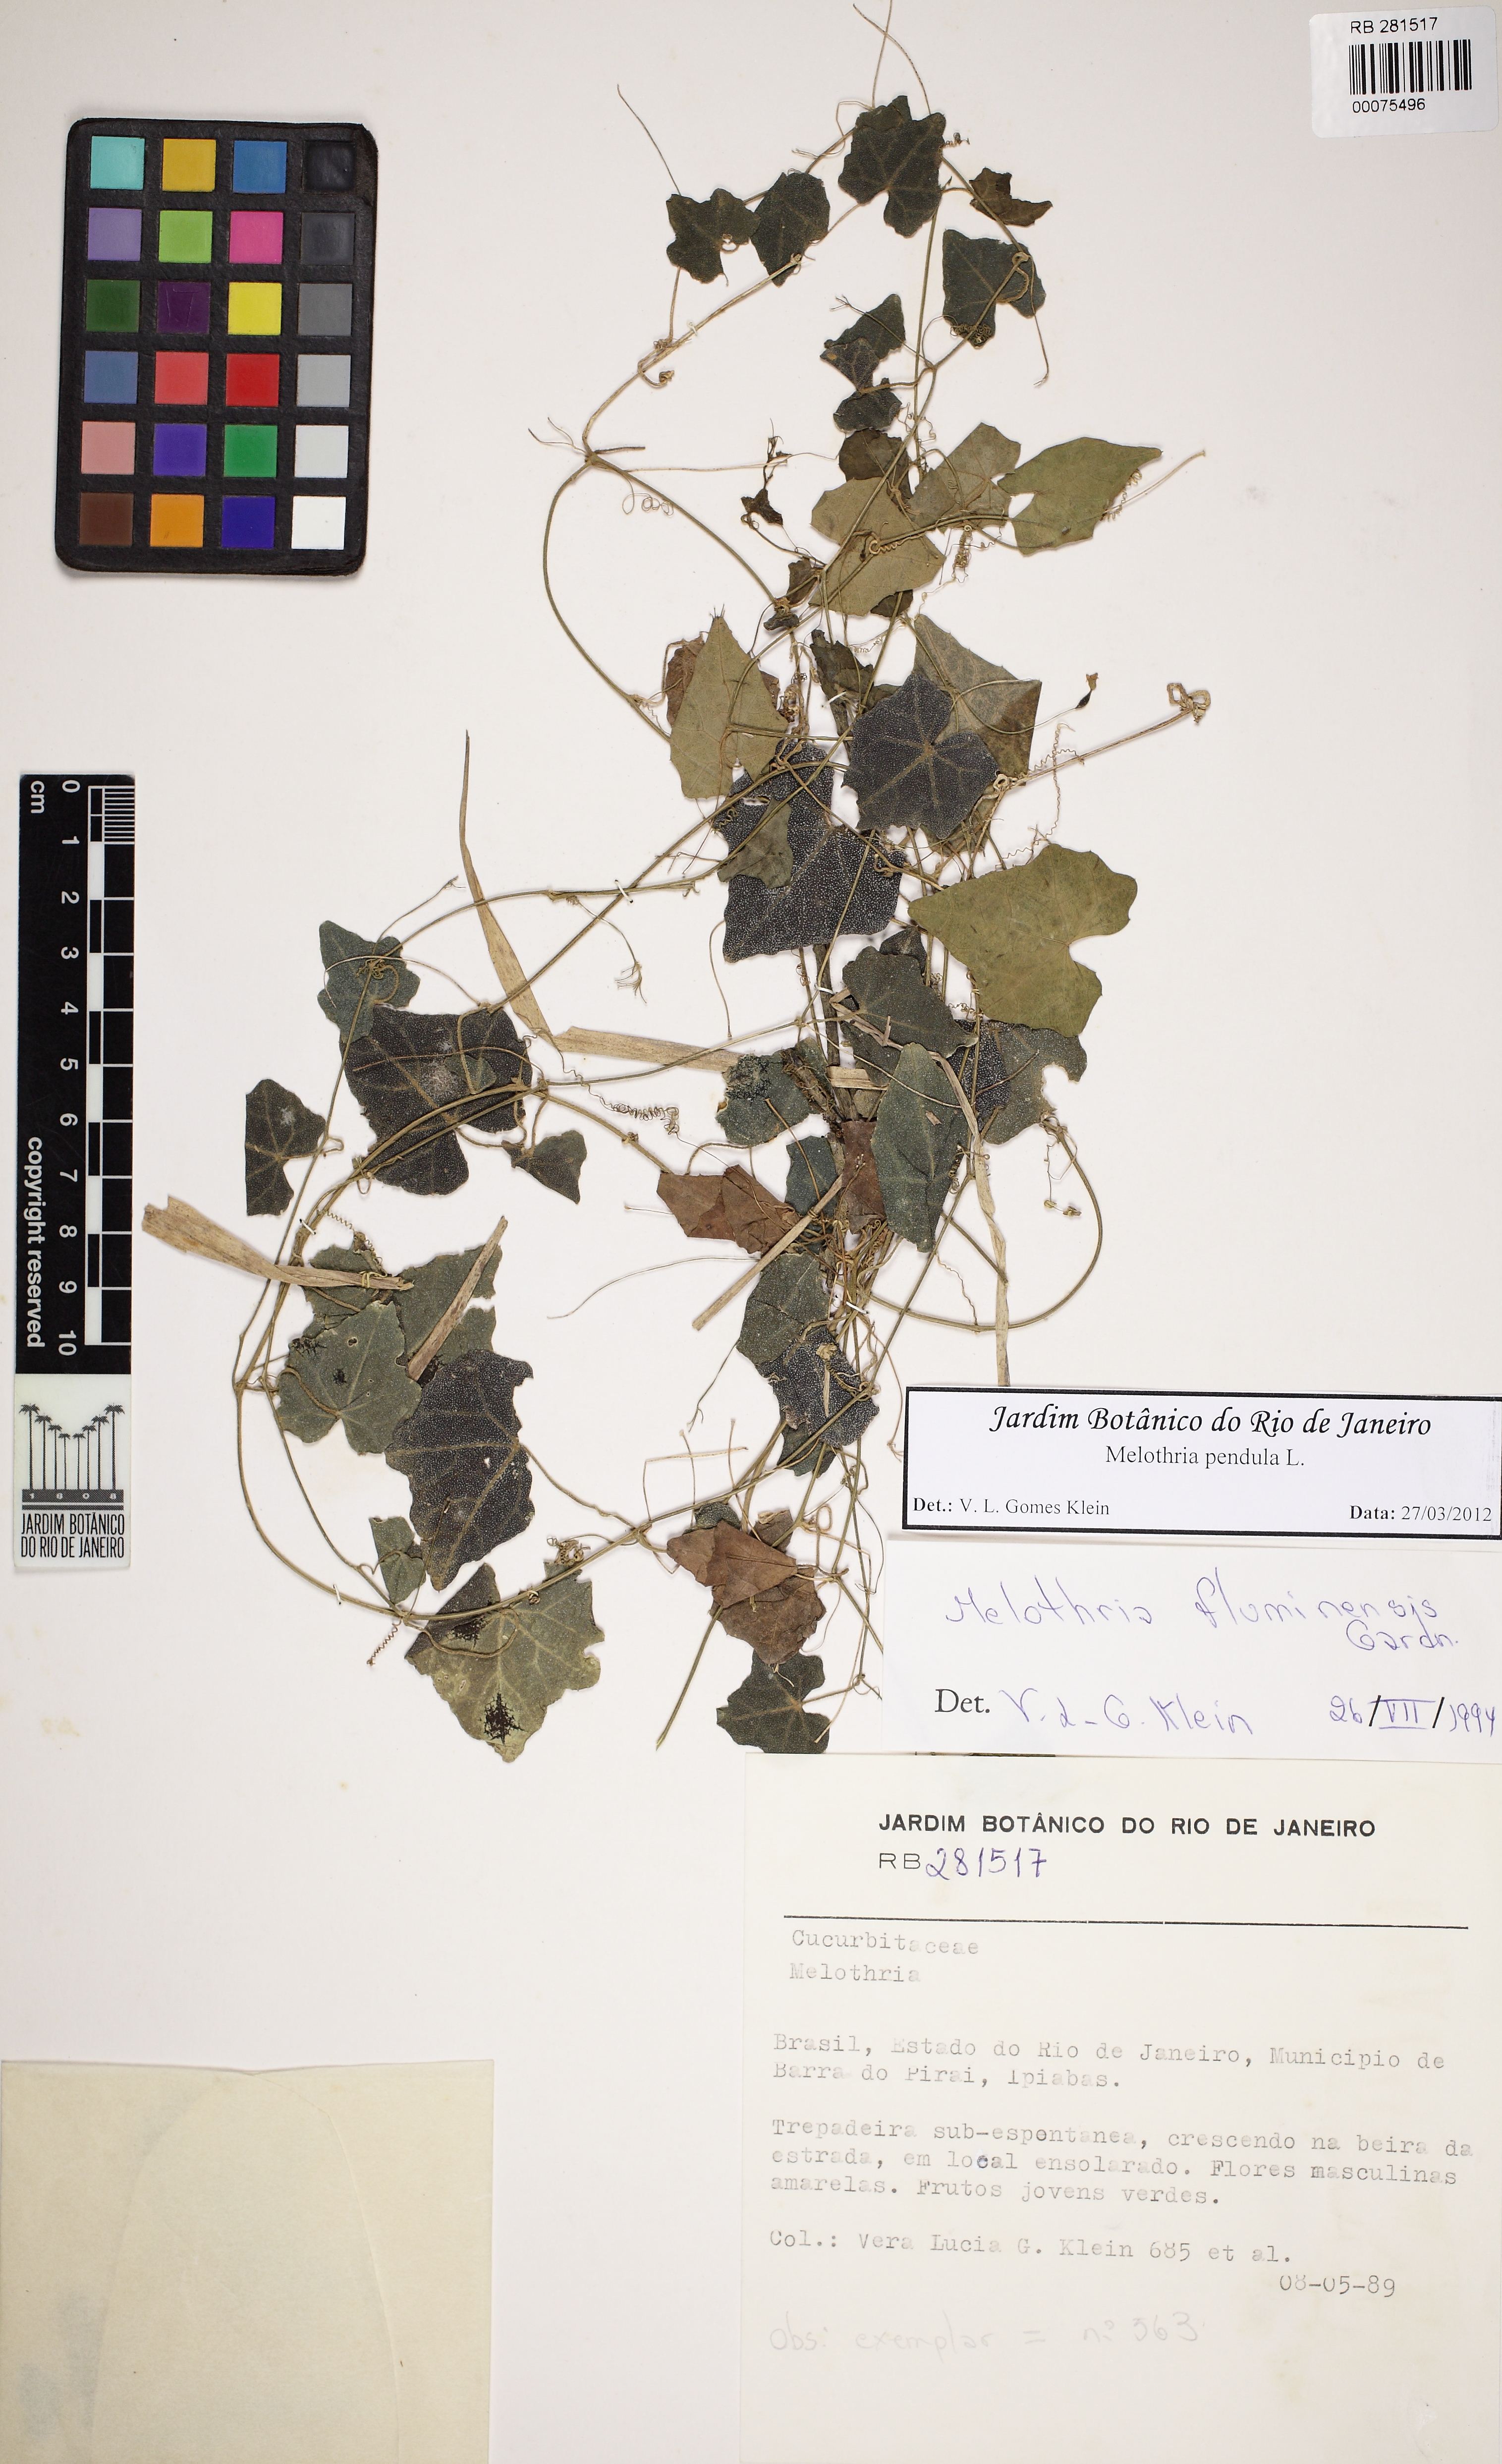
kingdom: Plantae
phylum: Tracheophyta
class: Magnoliopsida
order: Cucurbitales
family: Cucurbitaceae
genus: Melothria
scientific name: Melothria pendula
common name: Creeping-cucumber
